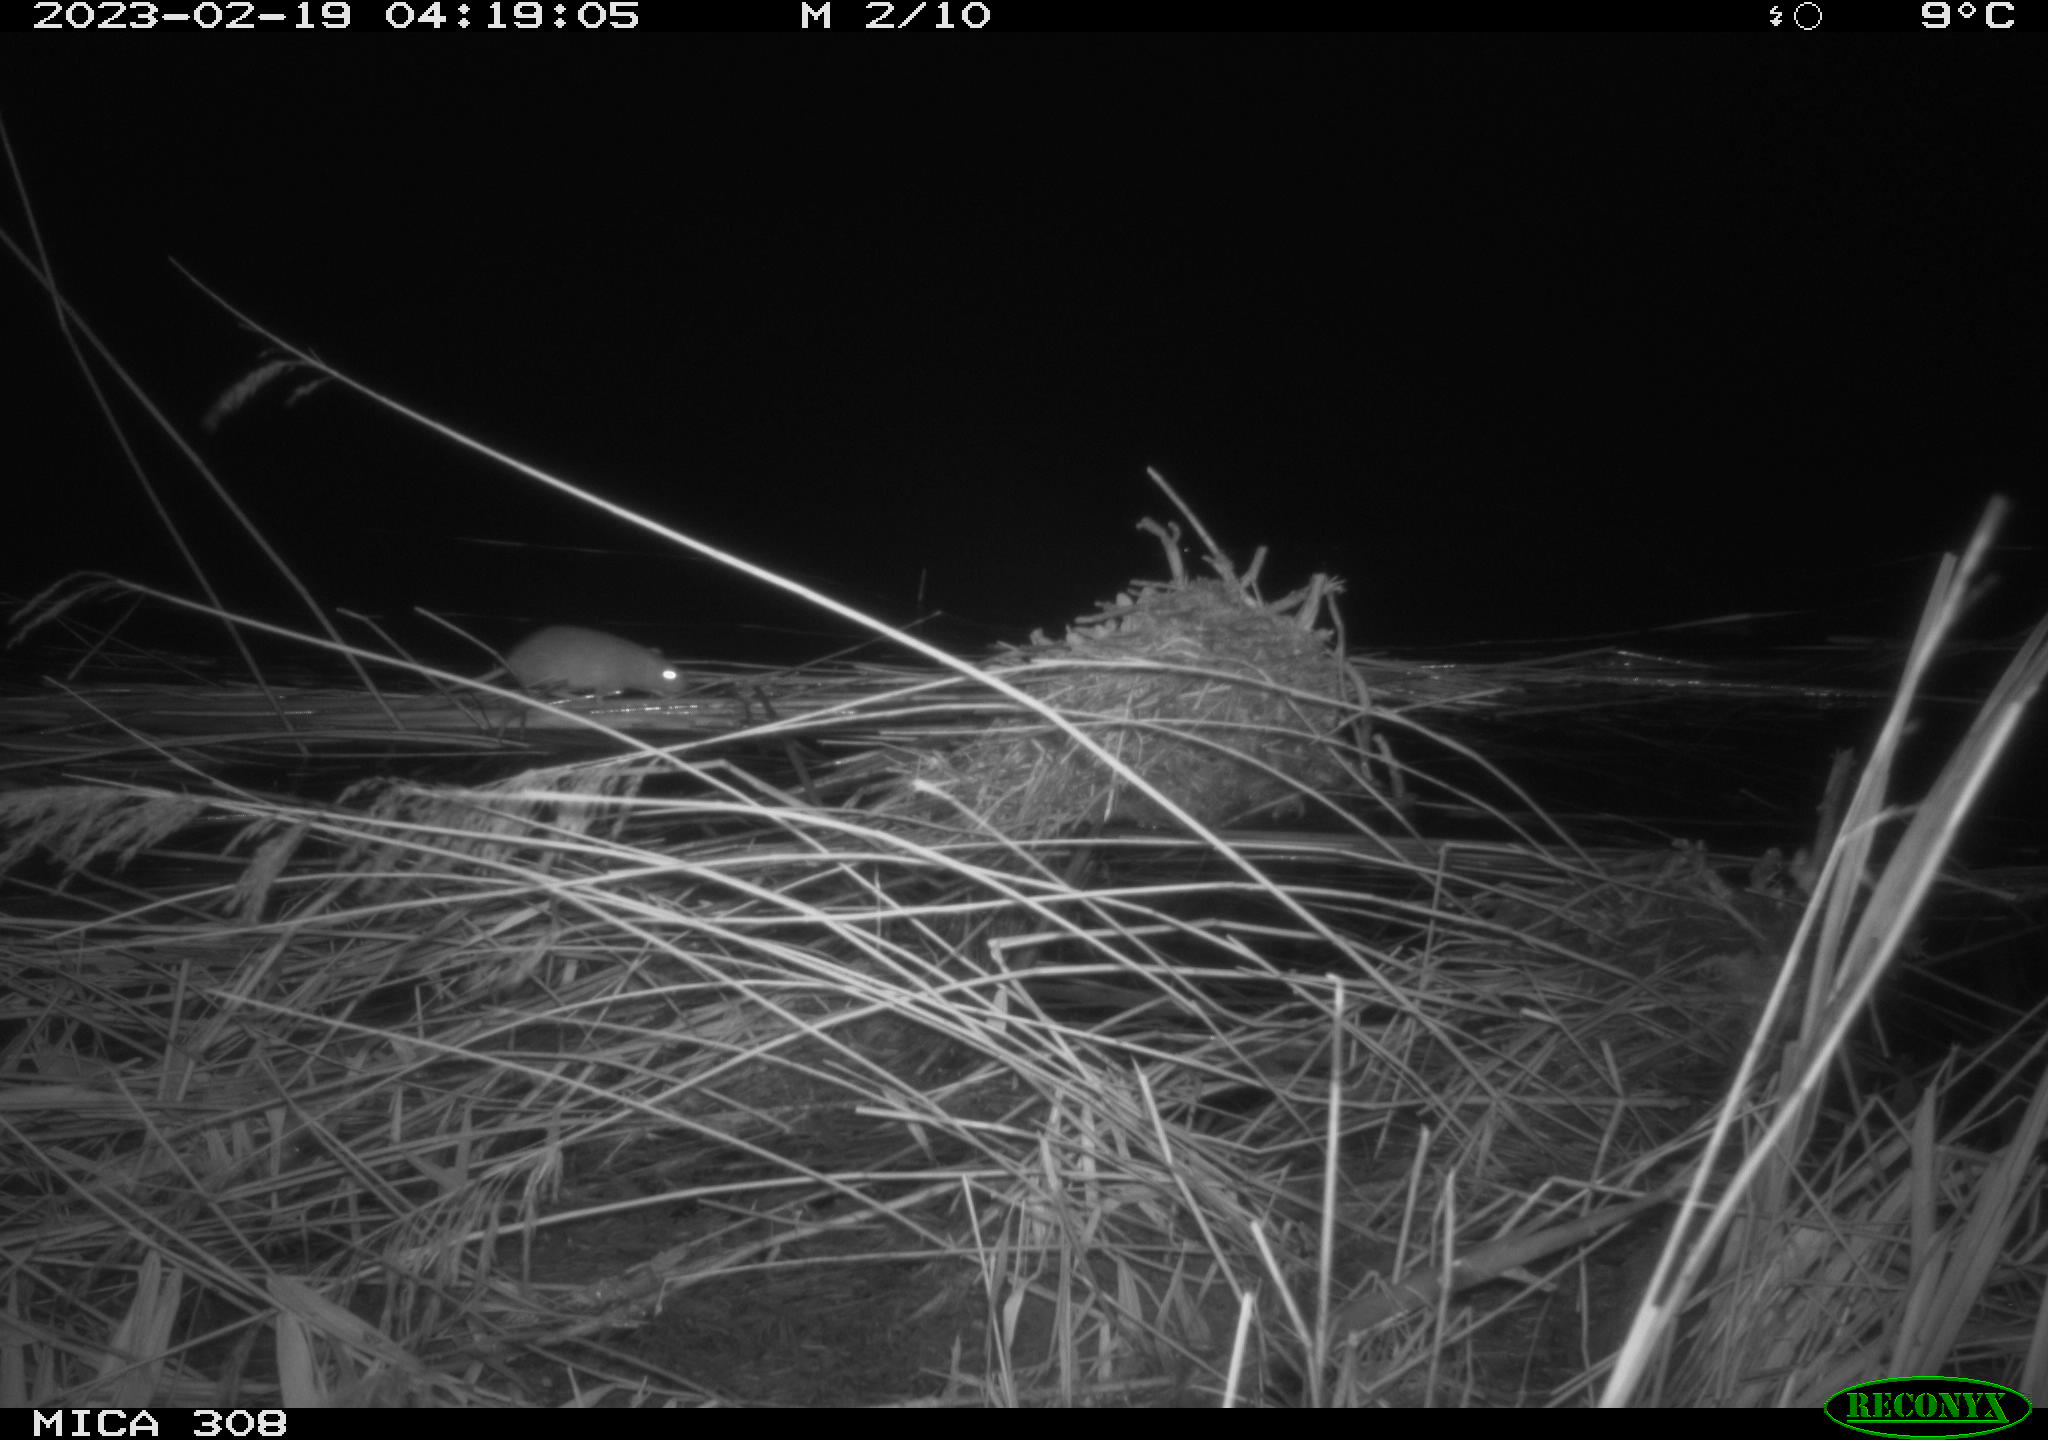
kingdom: Animalia
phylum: Chordata
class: Mammalia
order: Rodentia
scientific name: Rodentia
